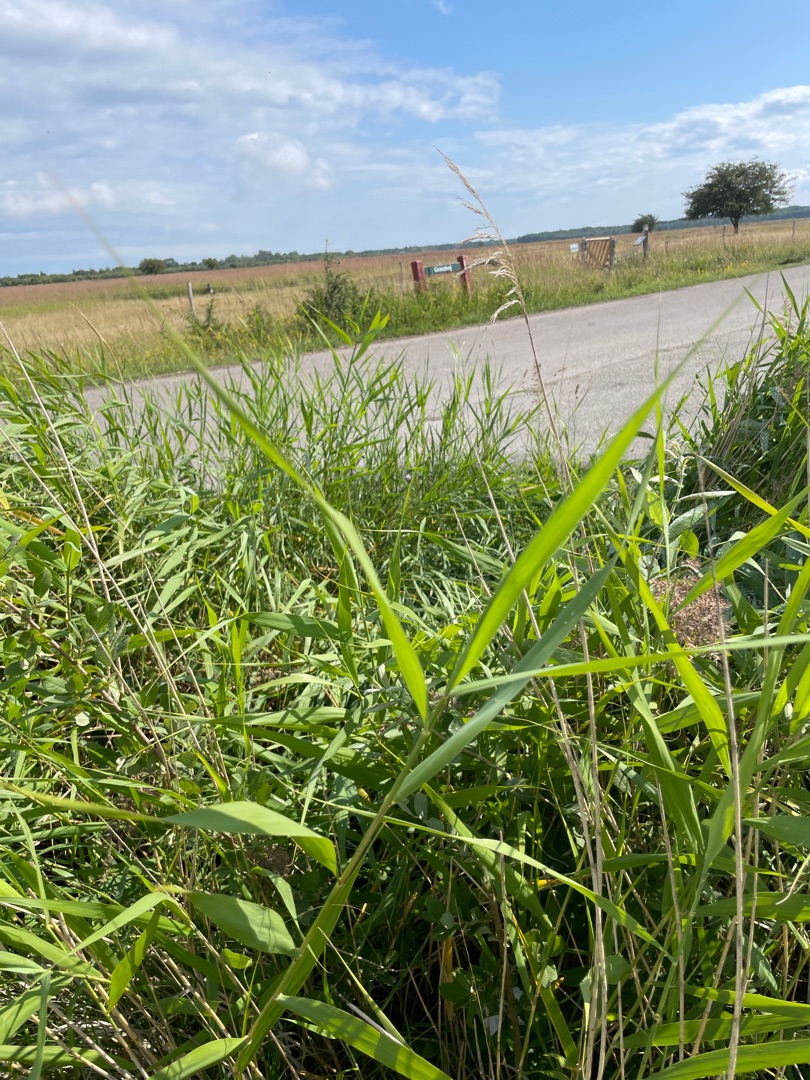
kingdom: Plantae
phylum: Tracheophyta
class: Liliopsida
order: Poales
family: Poaceae
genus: Phragmites
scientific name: Phragmites australis
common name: Tagrør
